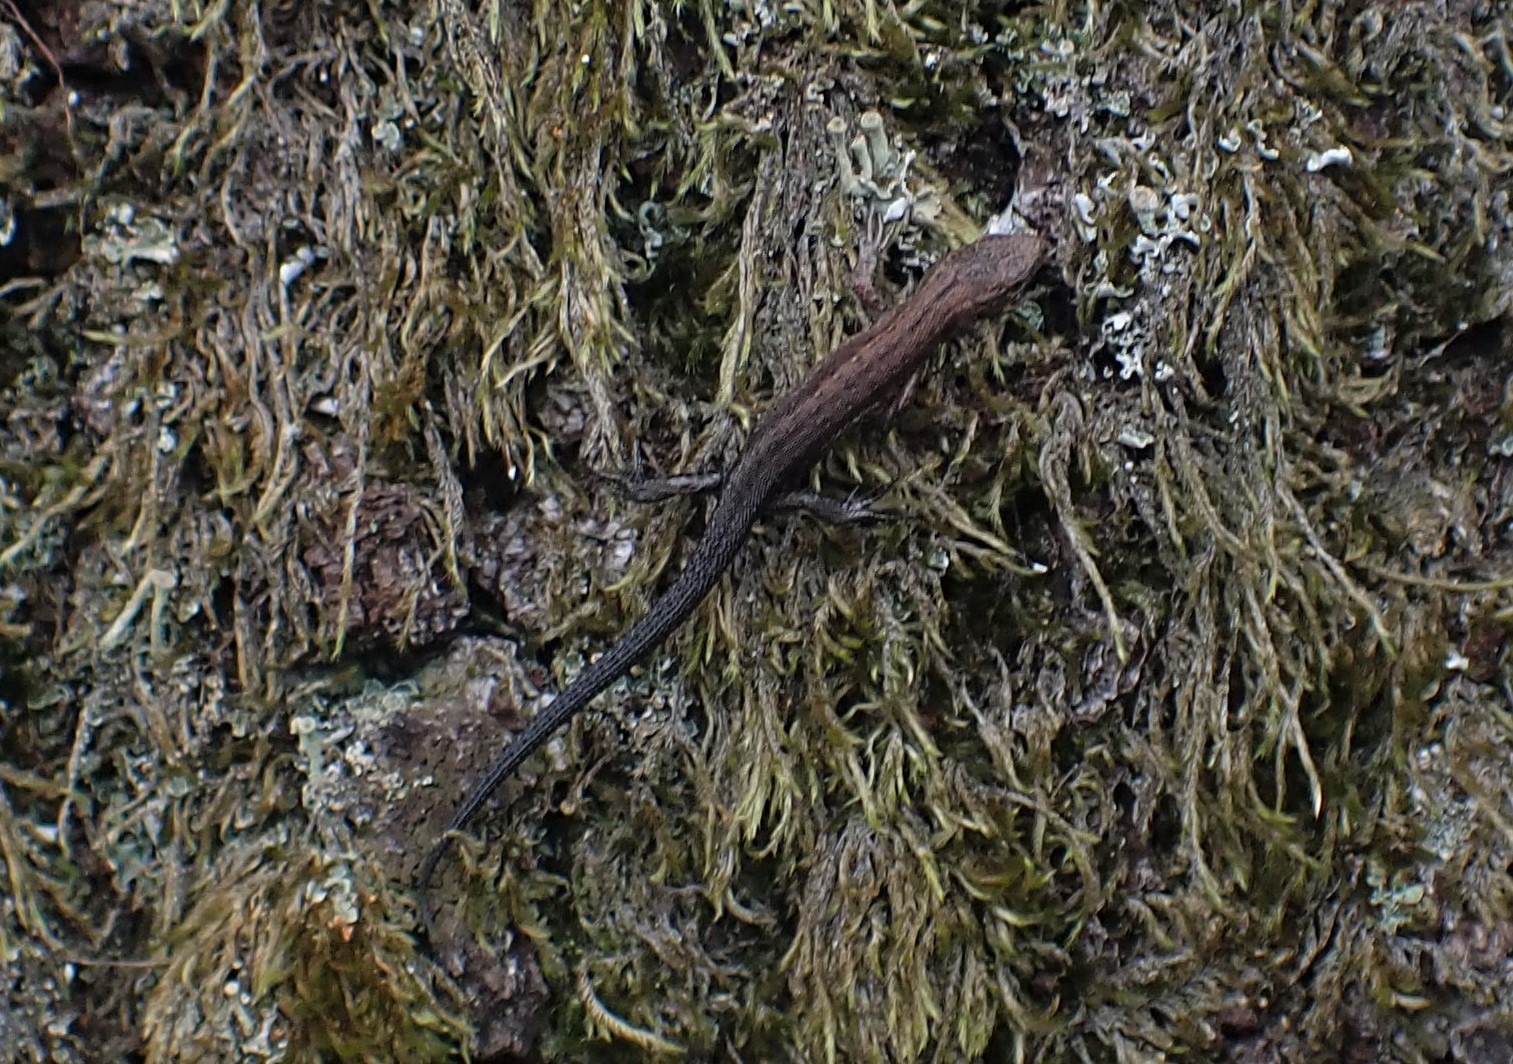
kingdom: Animalia
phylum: Chordata
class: Squamata
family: Lacertidae
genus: Zootoca
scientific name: Zootoca vivipara
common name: Skovfirben
